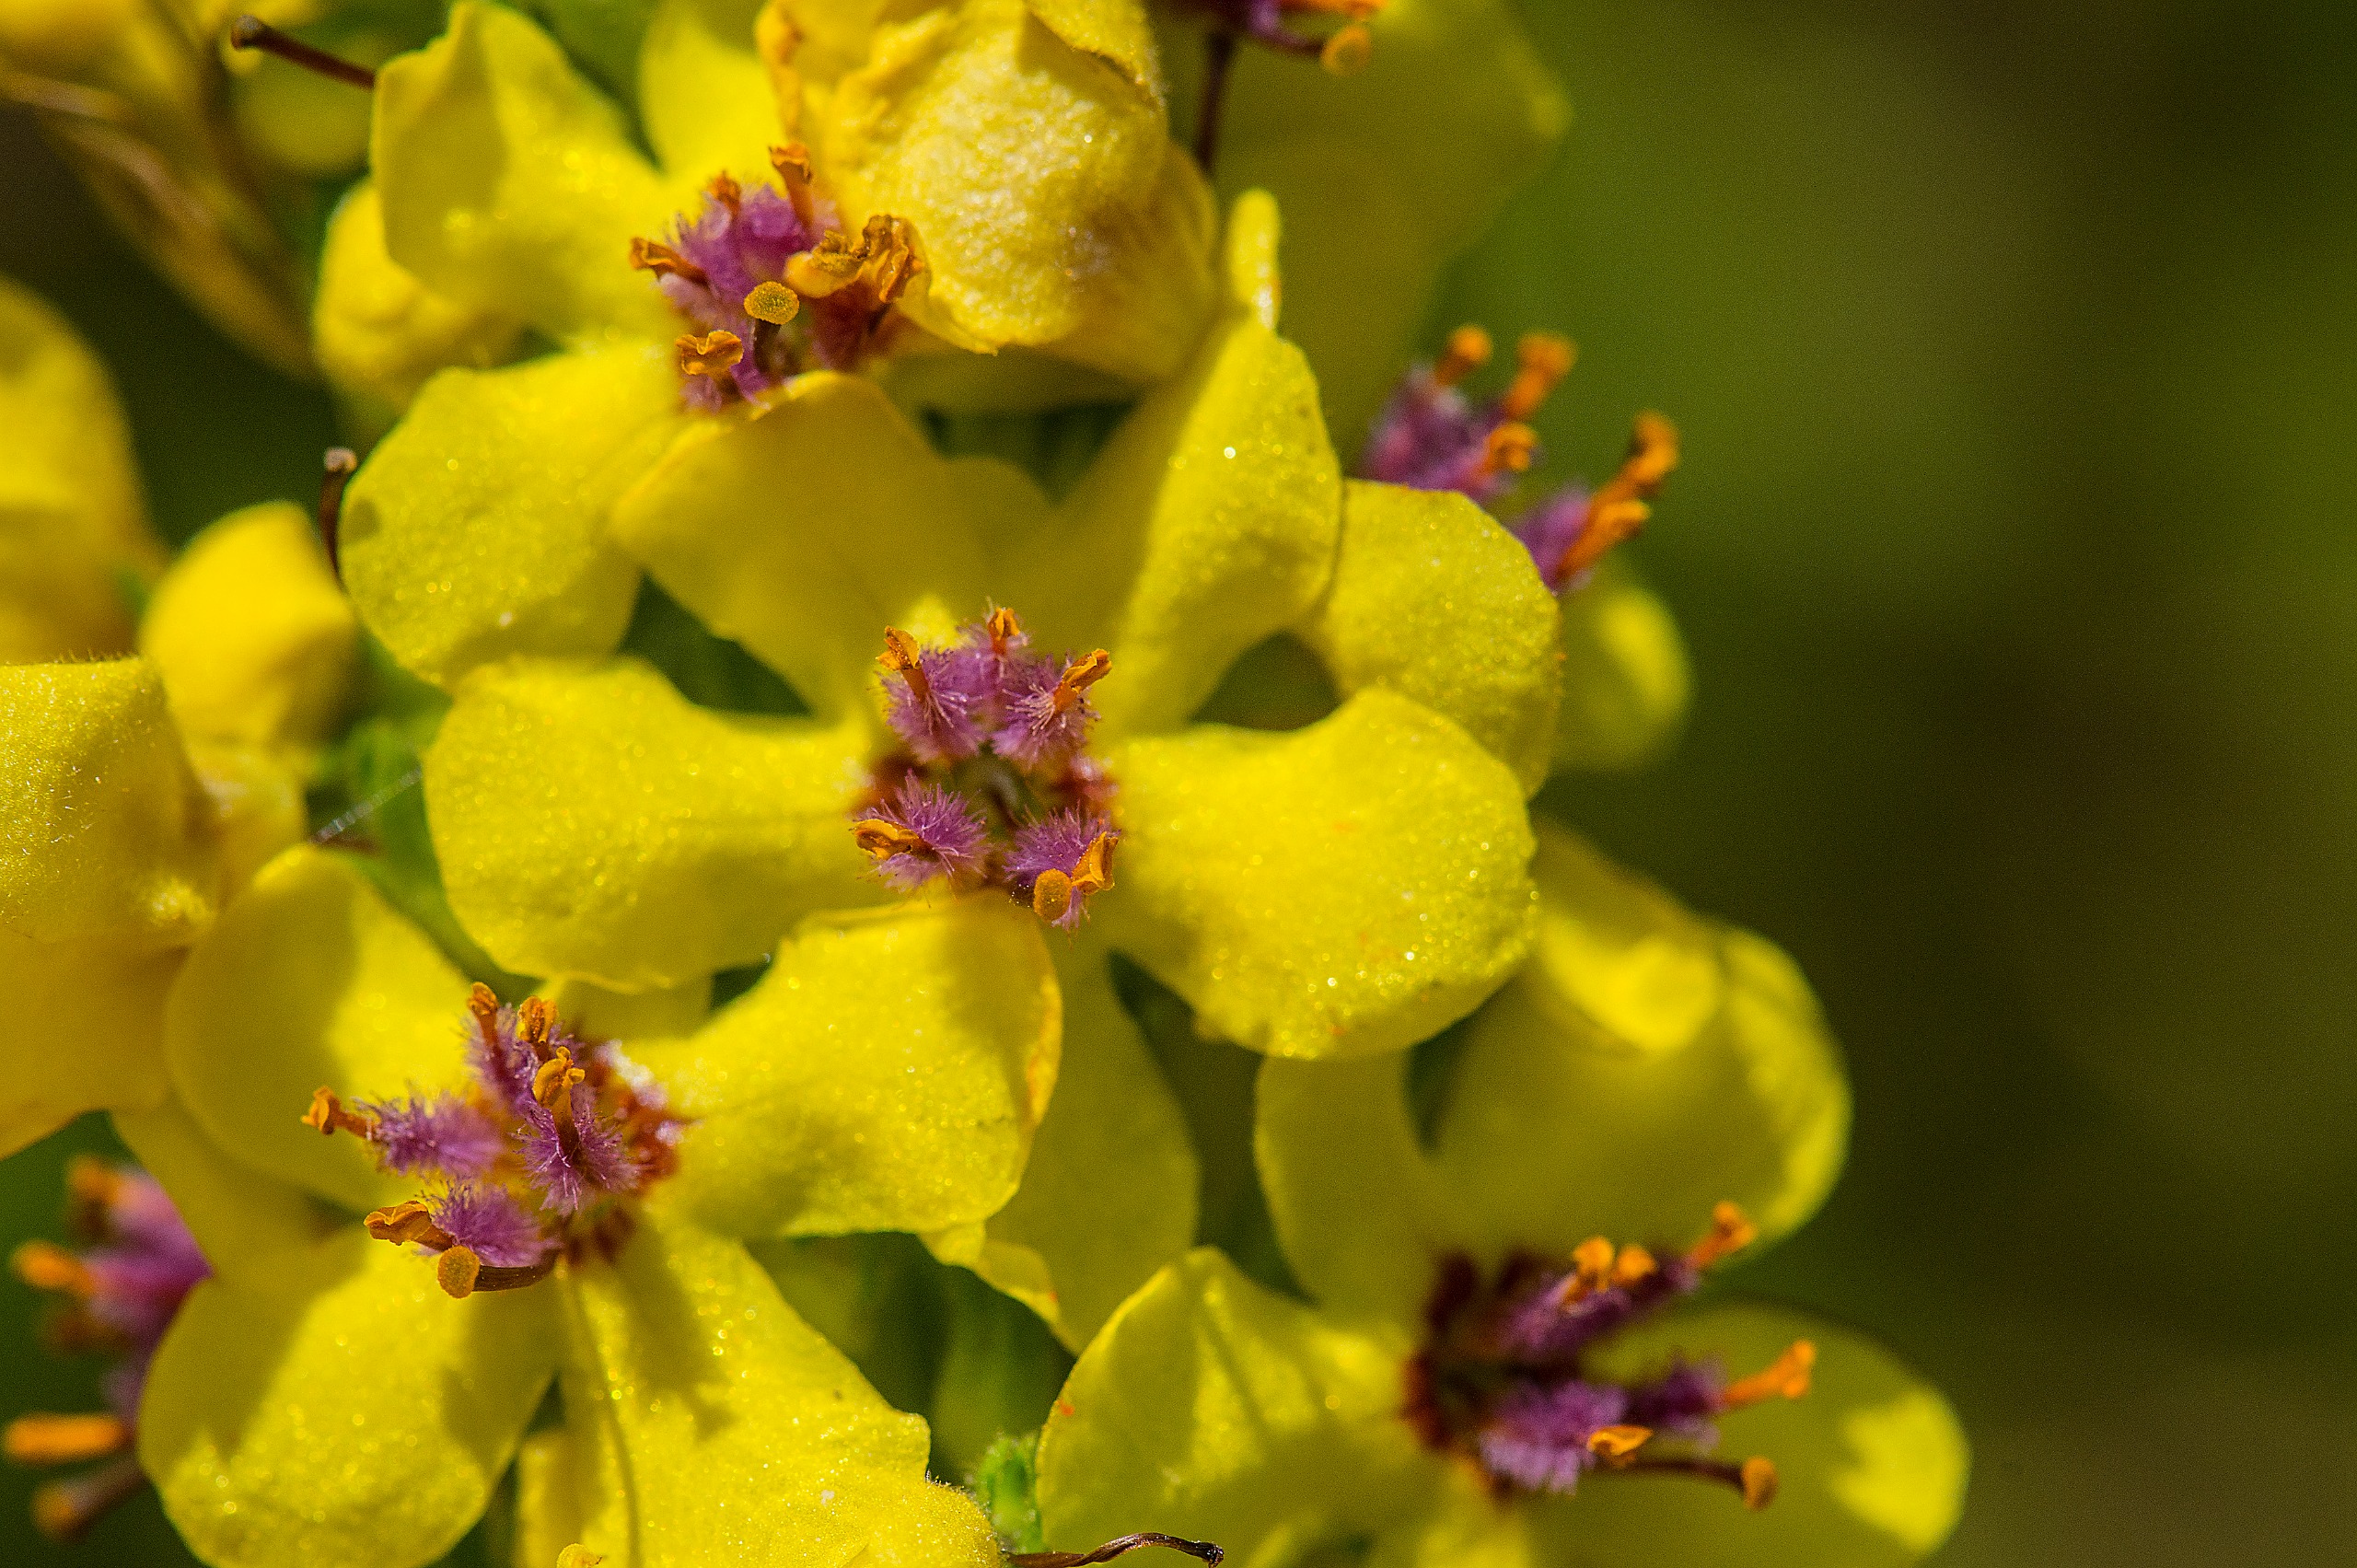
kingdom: Plantae
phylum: Tracheophyta
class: Magnoliopsida
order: Lamiales
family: Scrophulariaceae
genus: Verbascum
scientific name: Verbascum nigrum
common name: Mørk kongelys
